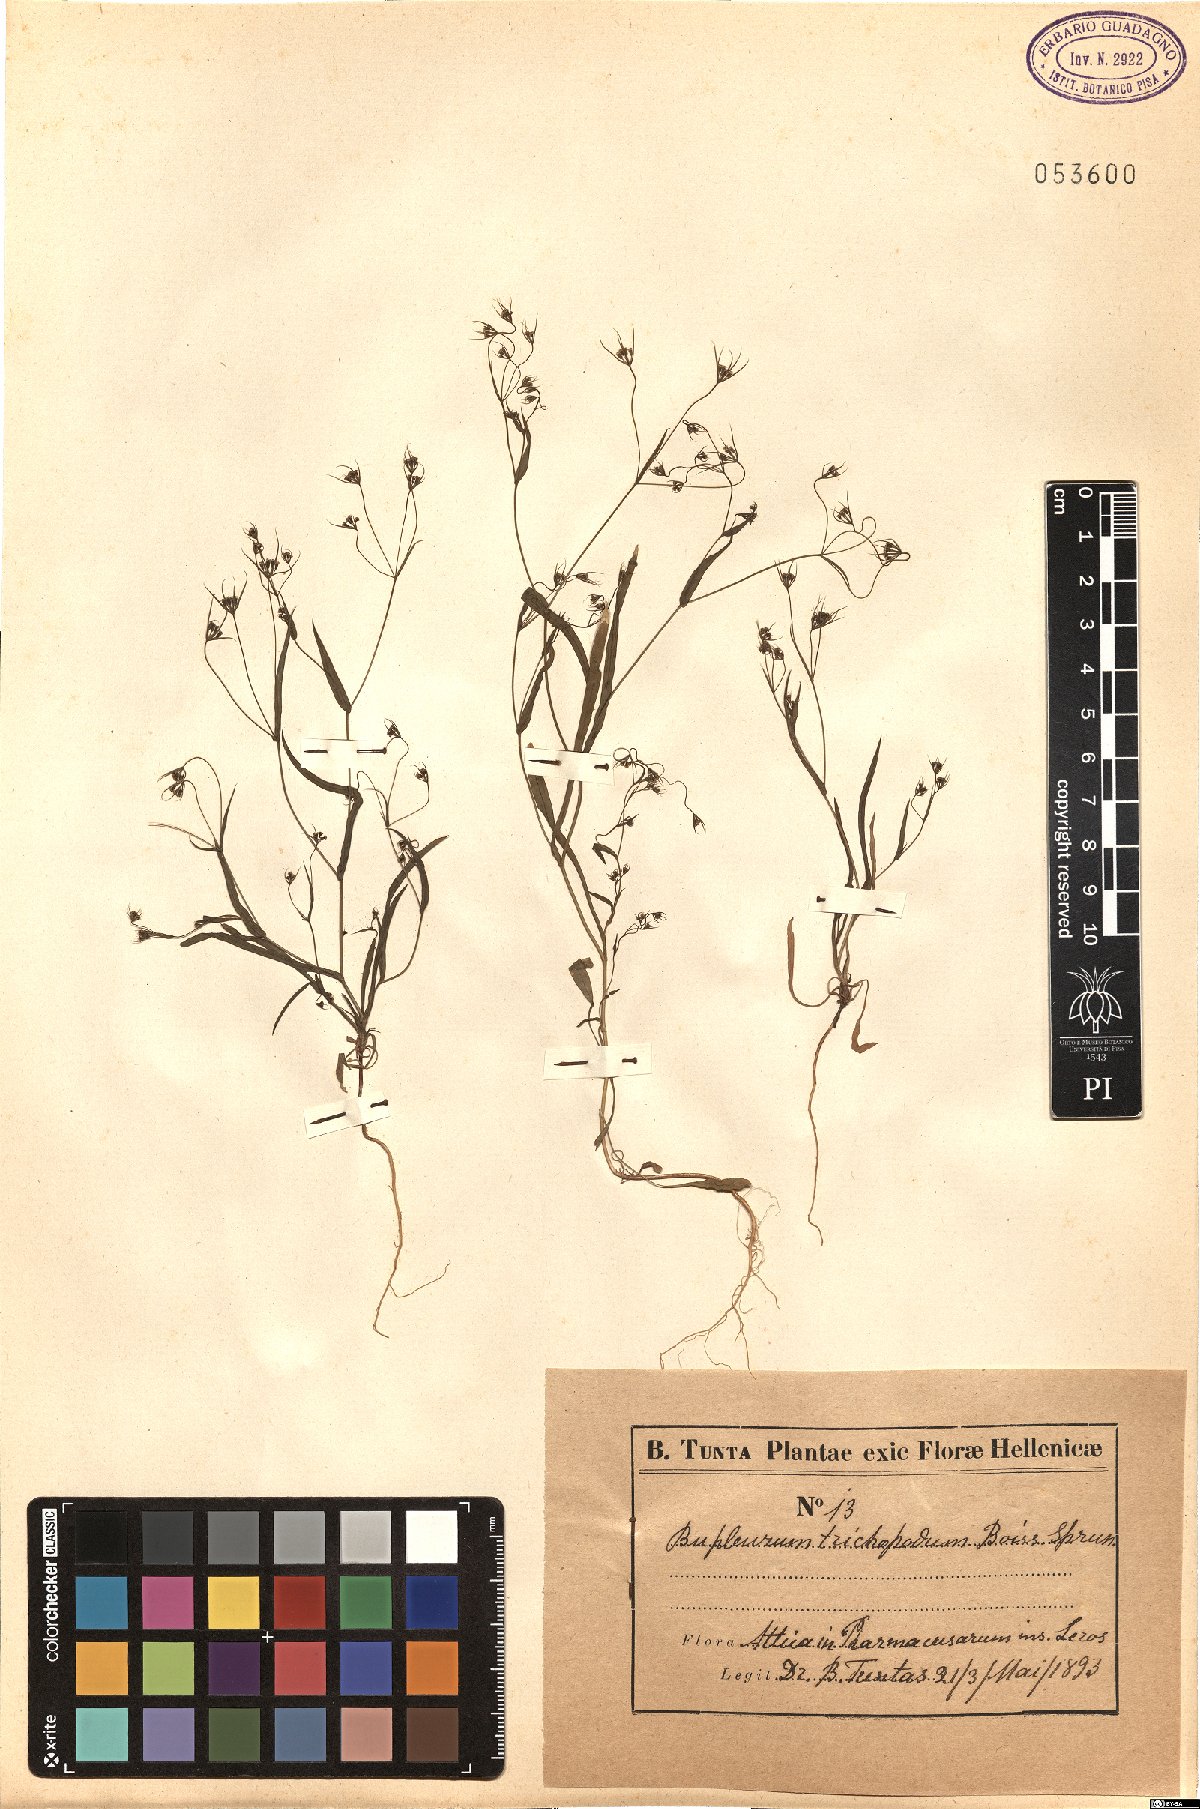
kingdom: Plantae
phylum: Tracheophyta
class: Magnoliopsida
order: Apiales
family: Apiaceae
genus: Bupleurum
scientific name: Bupleurum trichopodum
